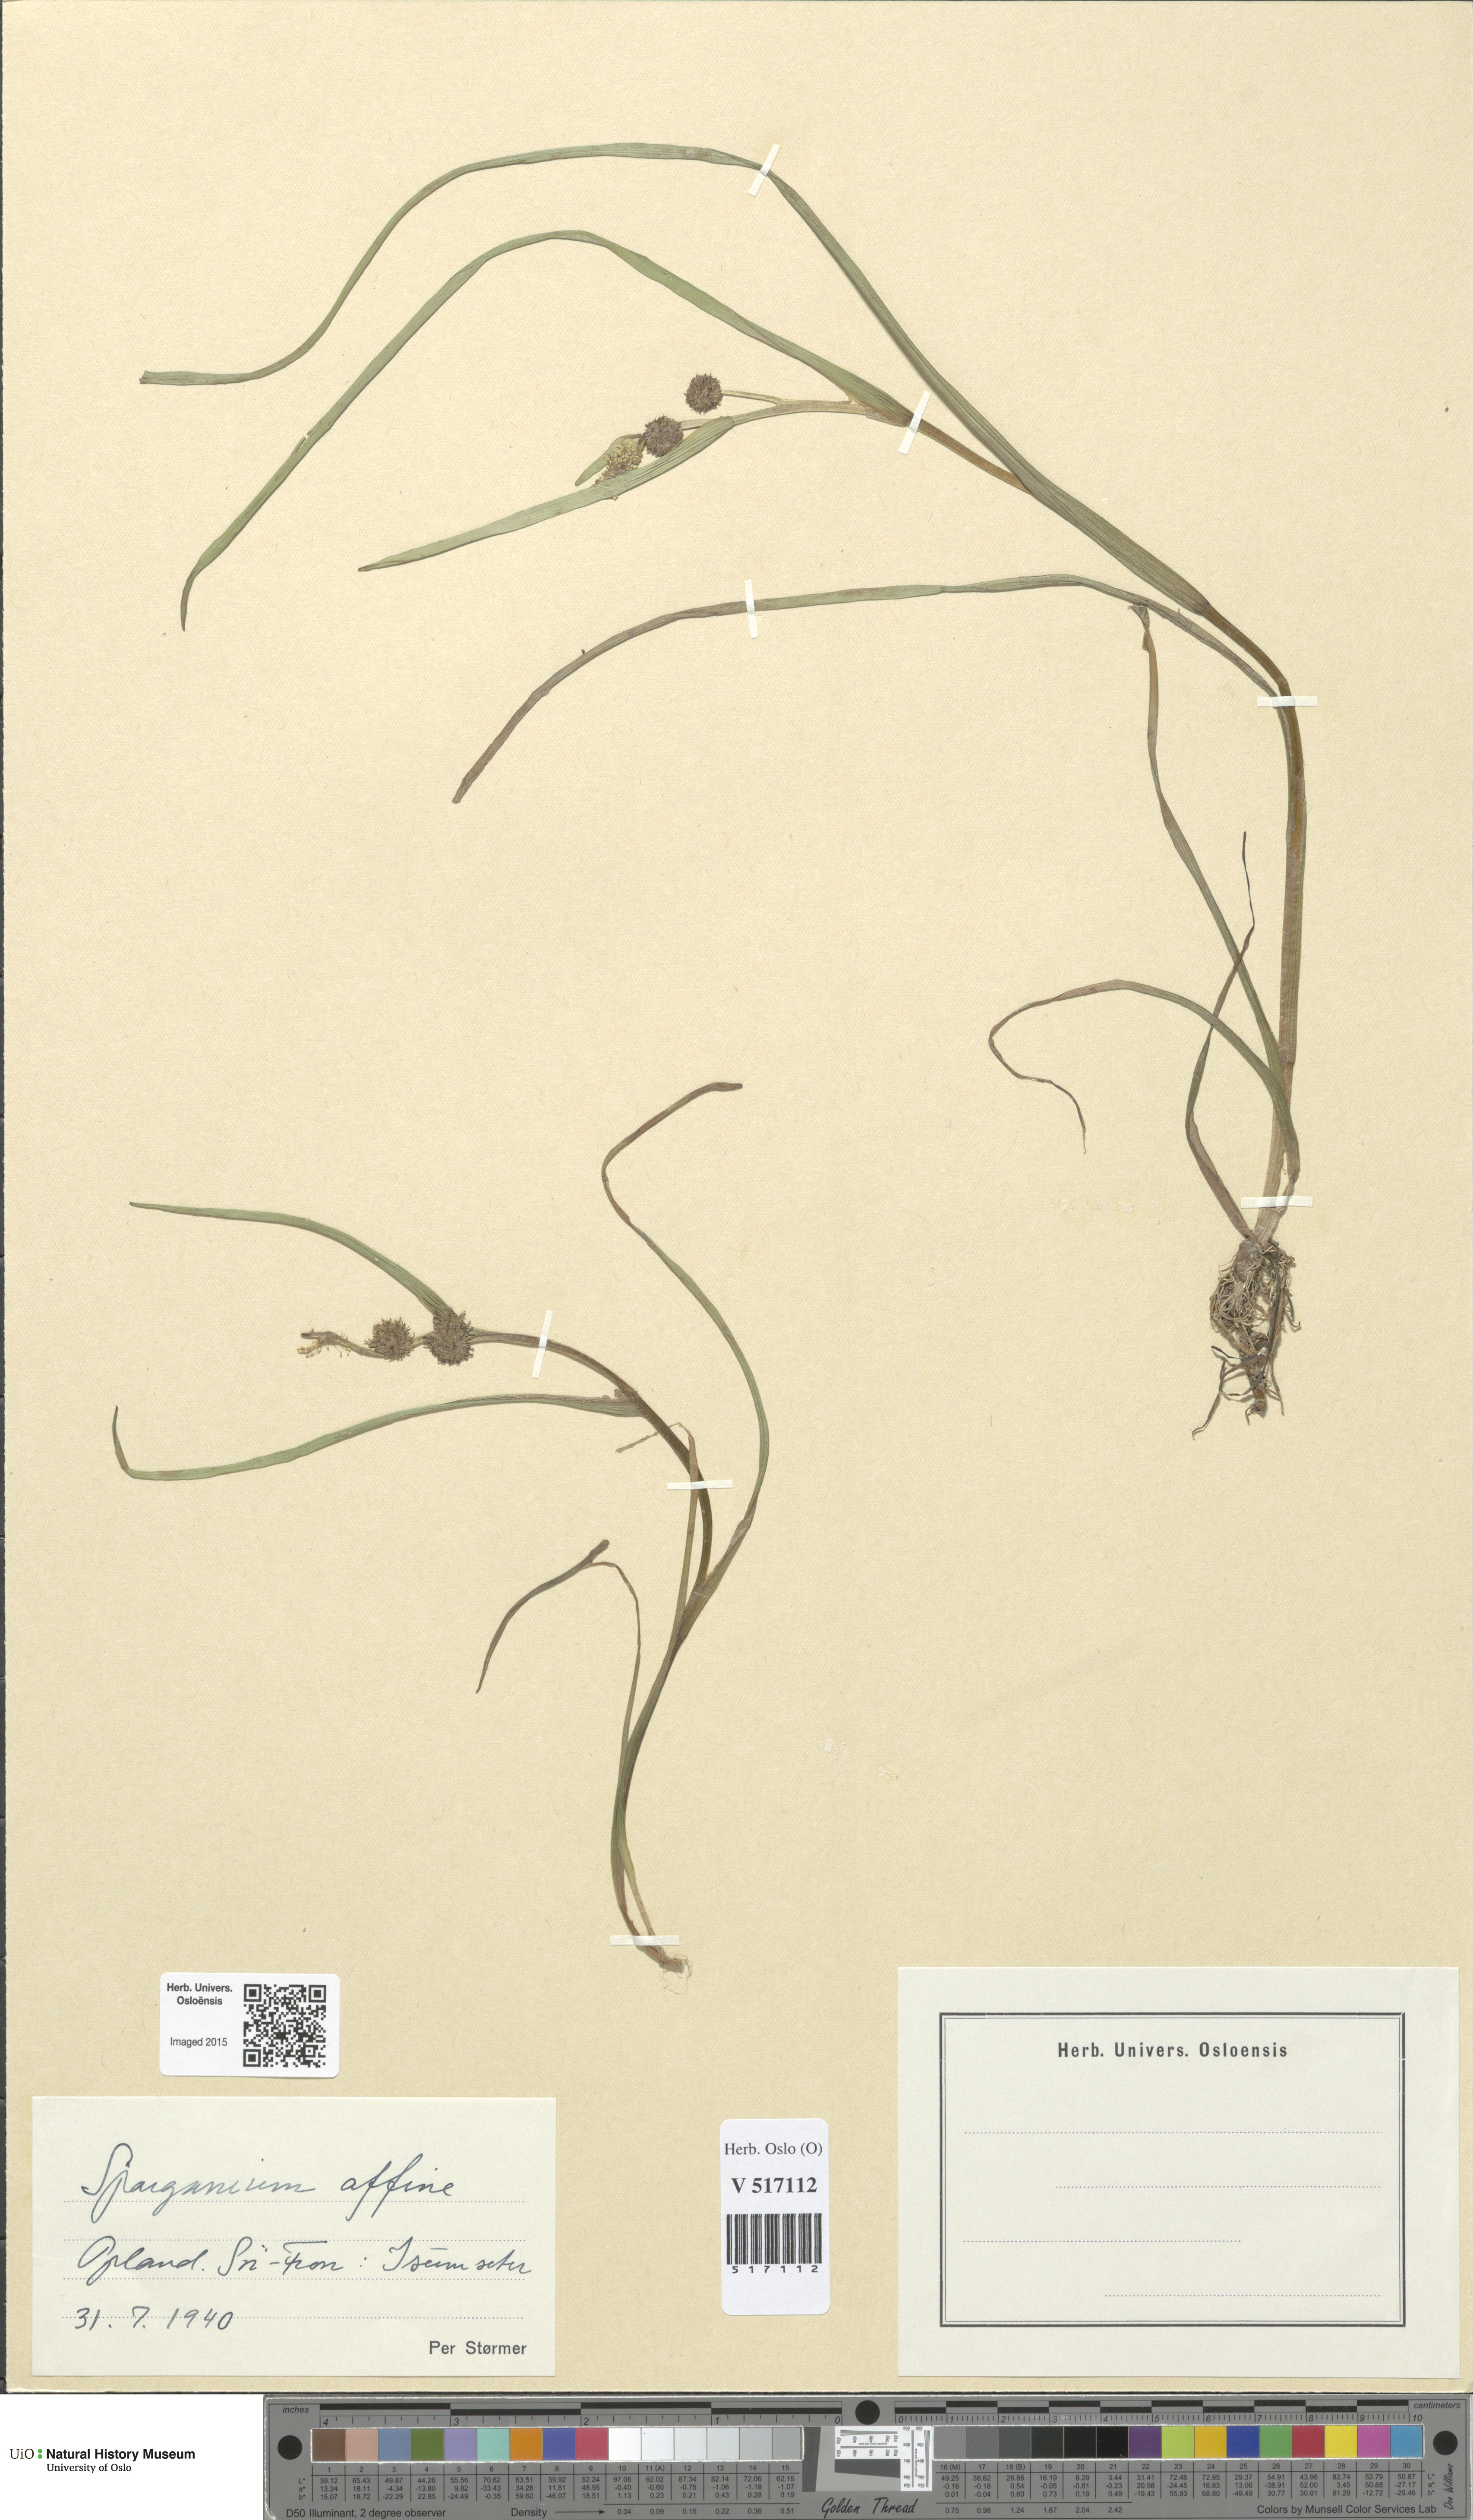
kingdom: Plantae
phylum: Tracheophyta
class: Liliopsida
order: Poales
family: Typhaceae
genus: Sparganium
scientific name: Sparganium angustifolium
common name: Floating bur-reed
